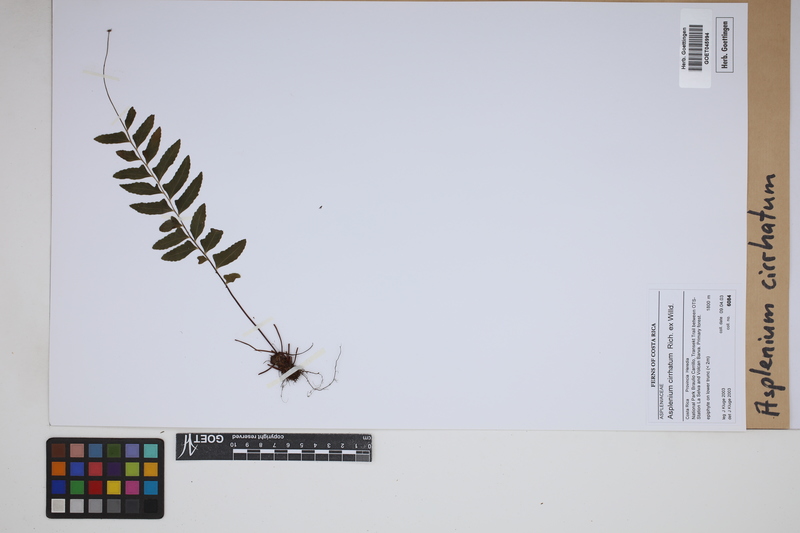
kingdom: Plantae
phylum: Tracheophyta
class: Polypodiopsida
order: Polypodiales
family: Aspleniaceae
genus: Asplenium
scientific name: Asplenium cirrhatum
